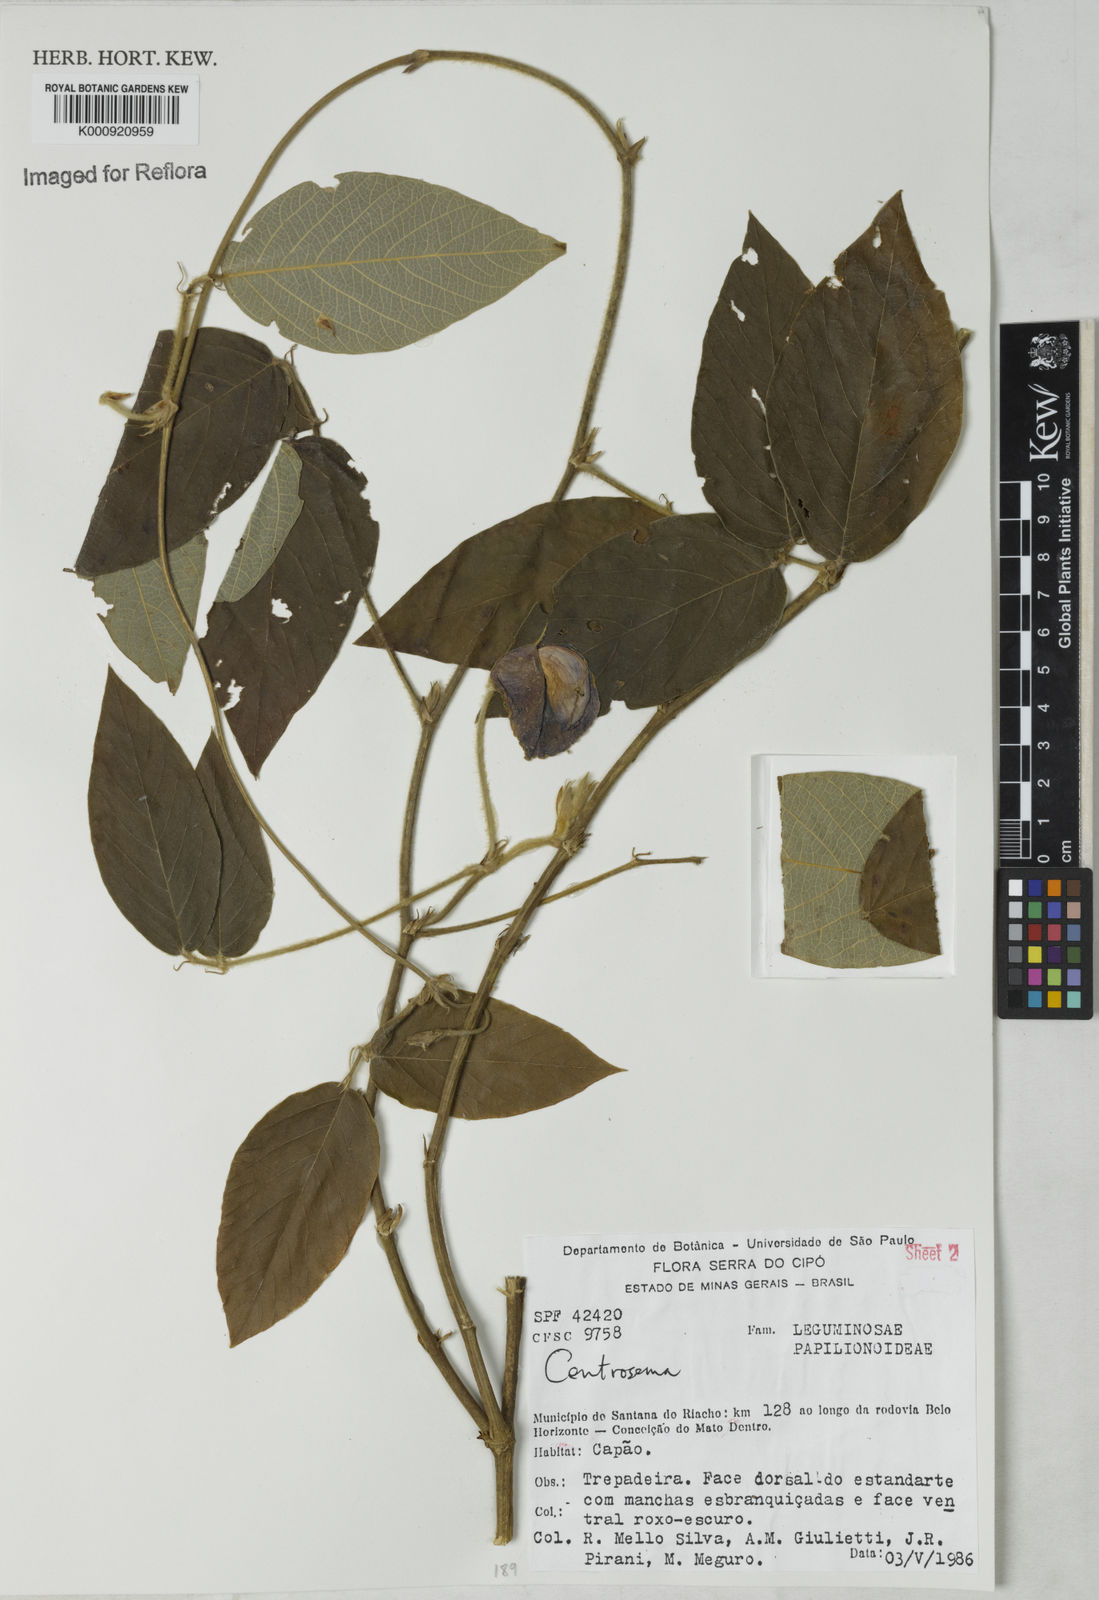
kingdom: Plantae
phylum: Tracheophyta
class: Magnoliopsida
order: Fabales
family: Fabaceae
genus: Centrosema
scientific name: Centrosema
